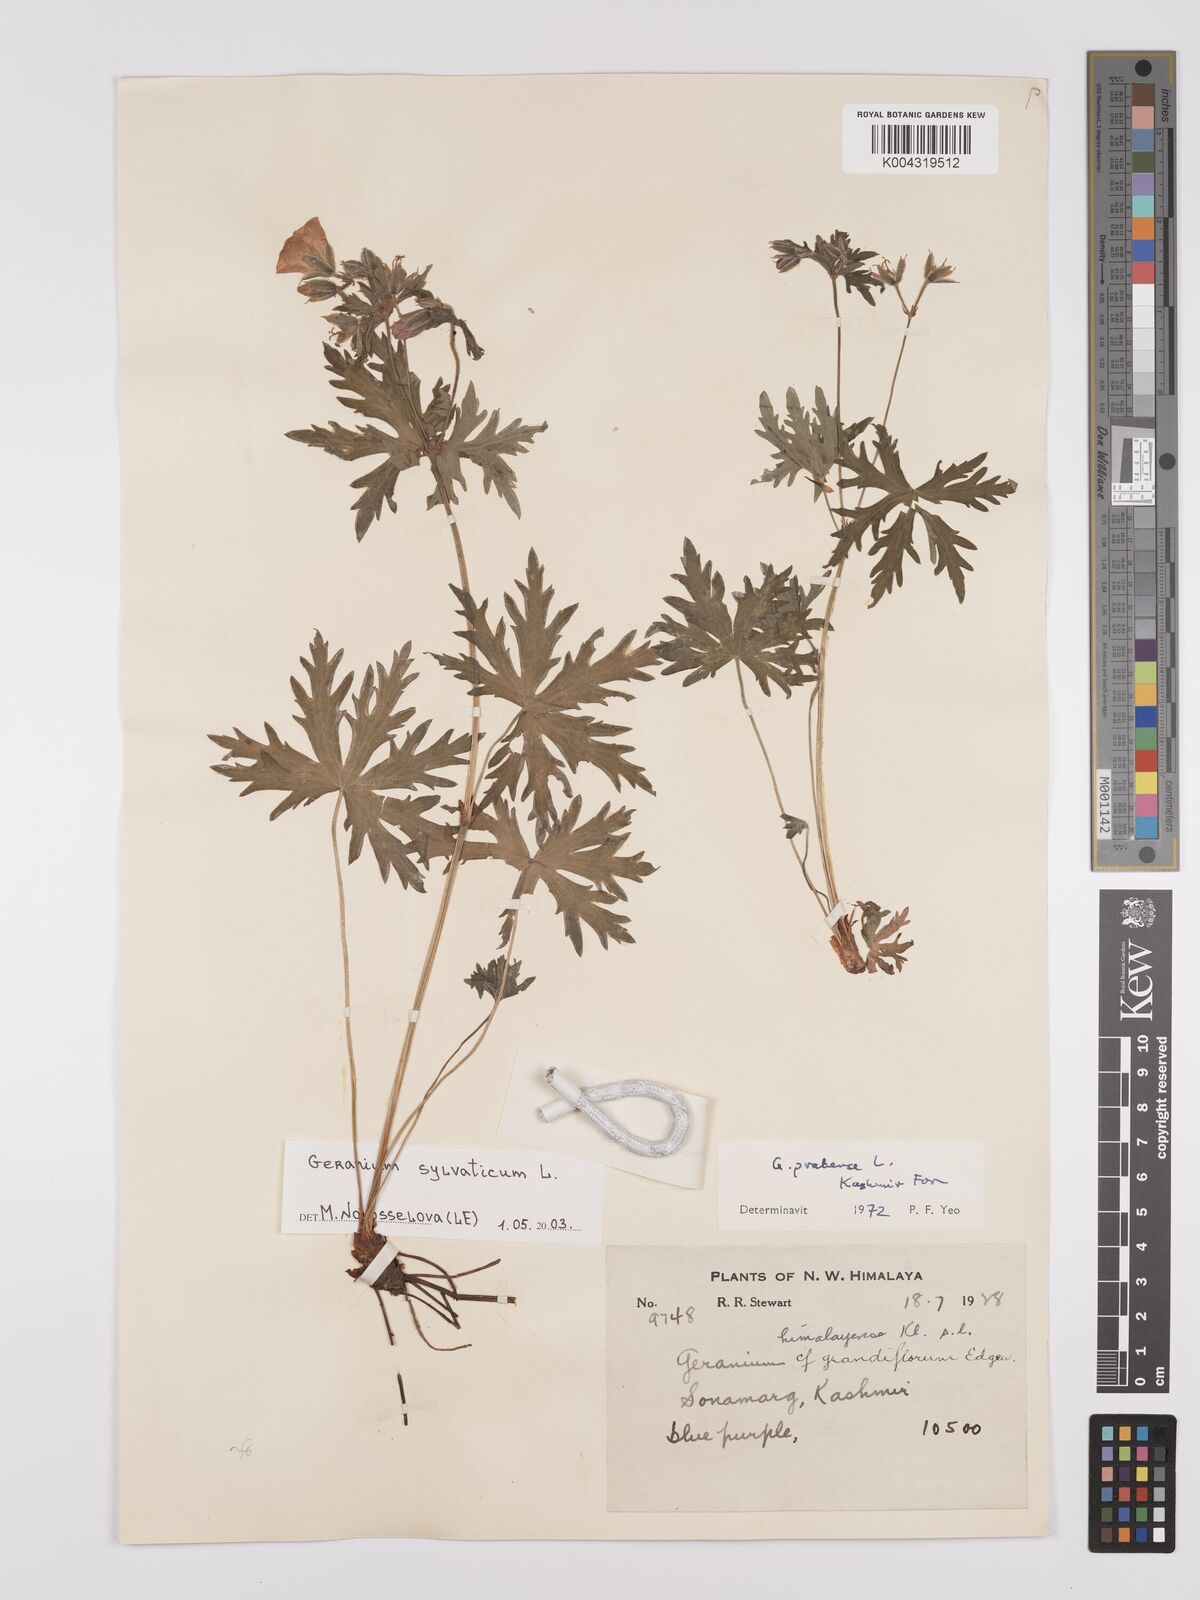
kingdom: Plantae
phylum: Tracheophyta
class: Magnoliopsida
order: Geraniales
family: Geraniaceae
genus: Geranium
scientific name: Geranium clarkei
